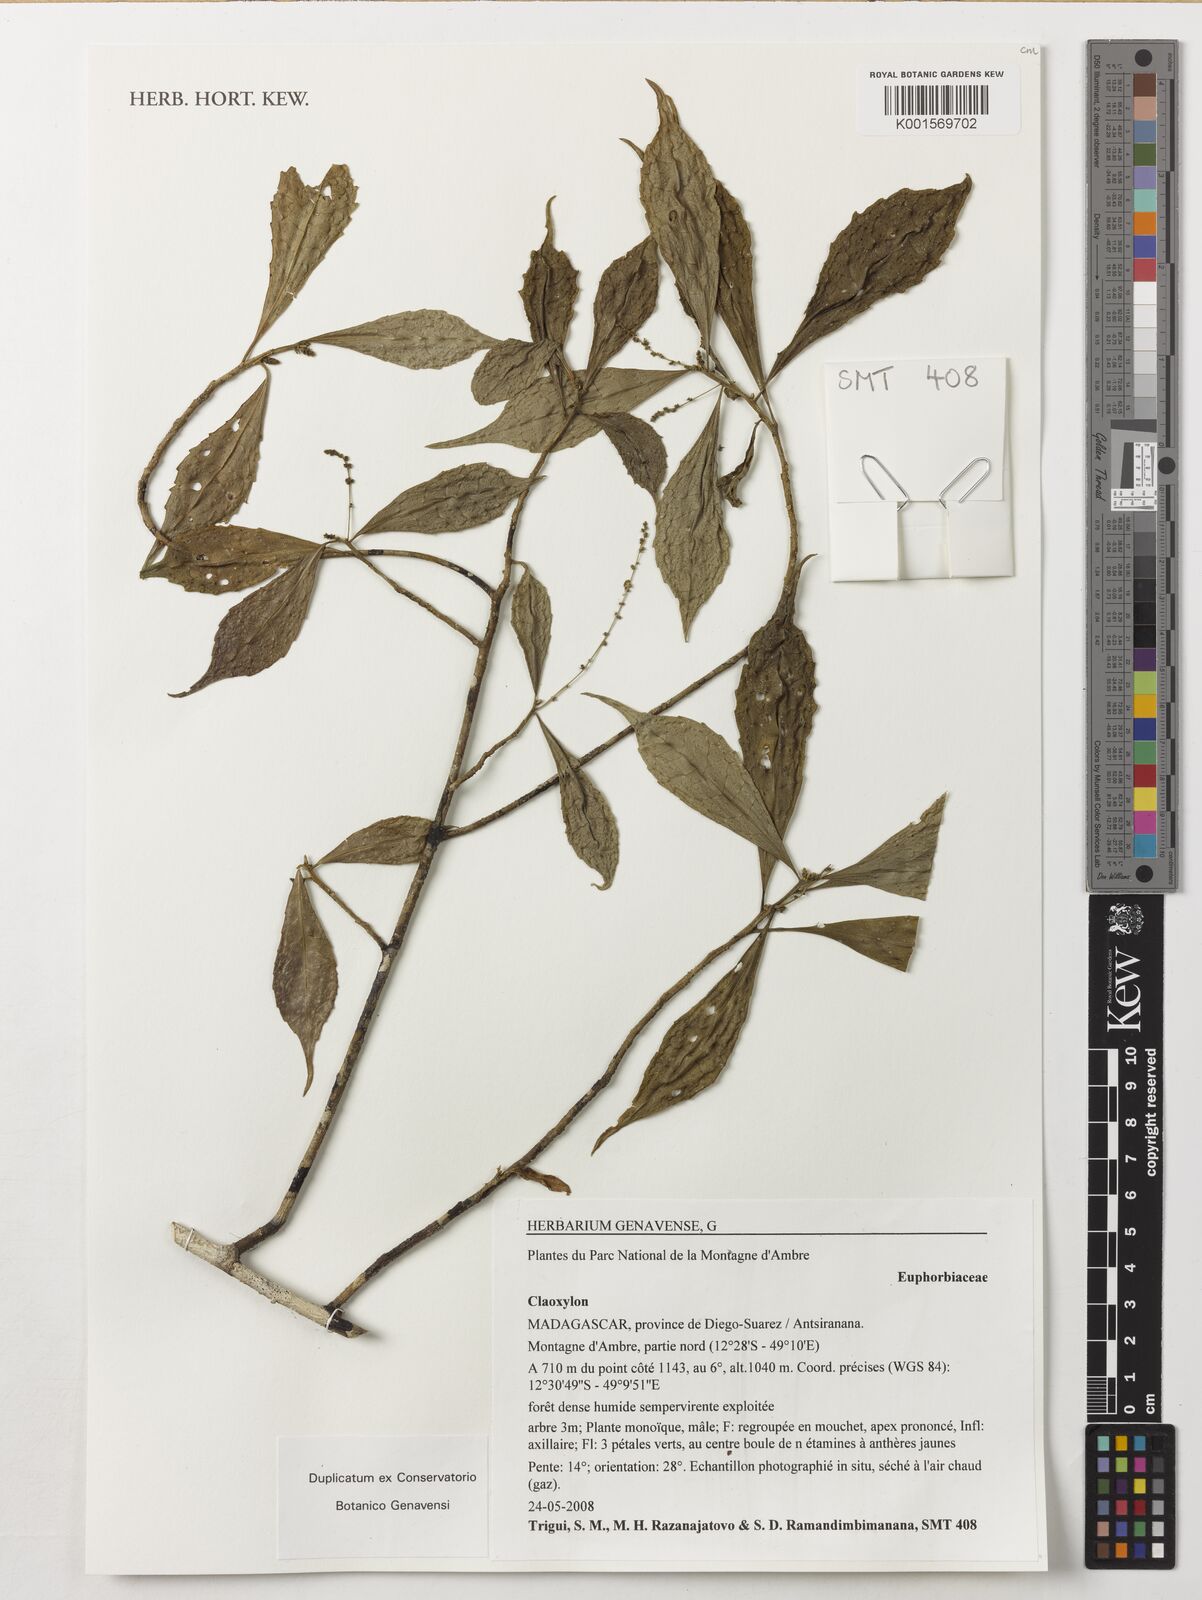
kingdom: Plantae
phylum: Tracheophyta
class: Magnoliopsida
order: Malpighiales
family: Euphorbiaceae
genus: Claoxylon
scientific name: Claoxylon
